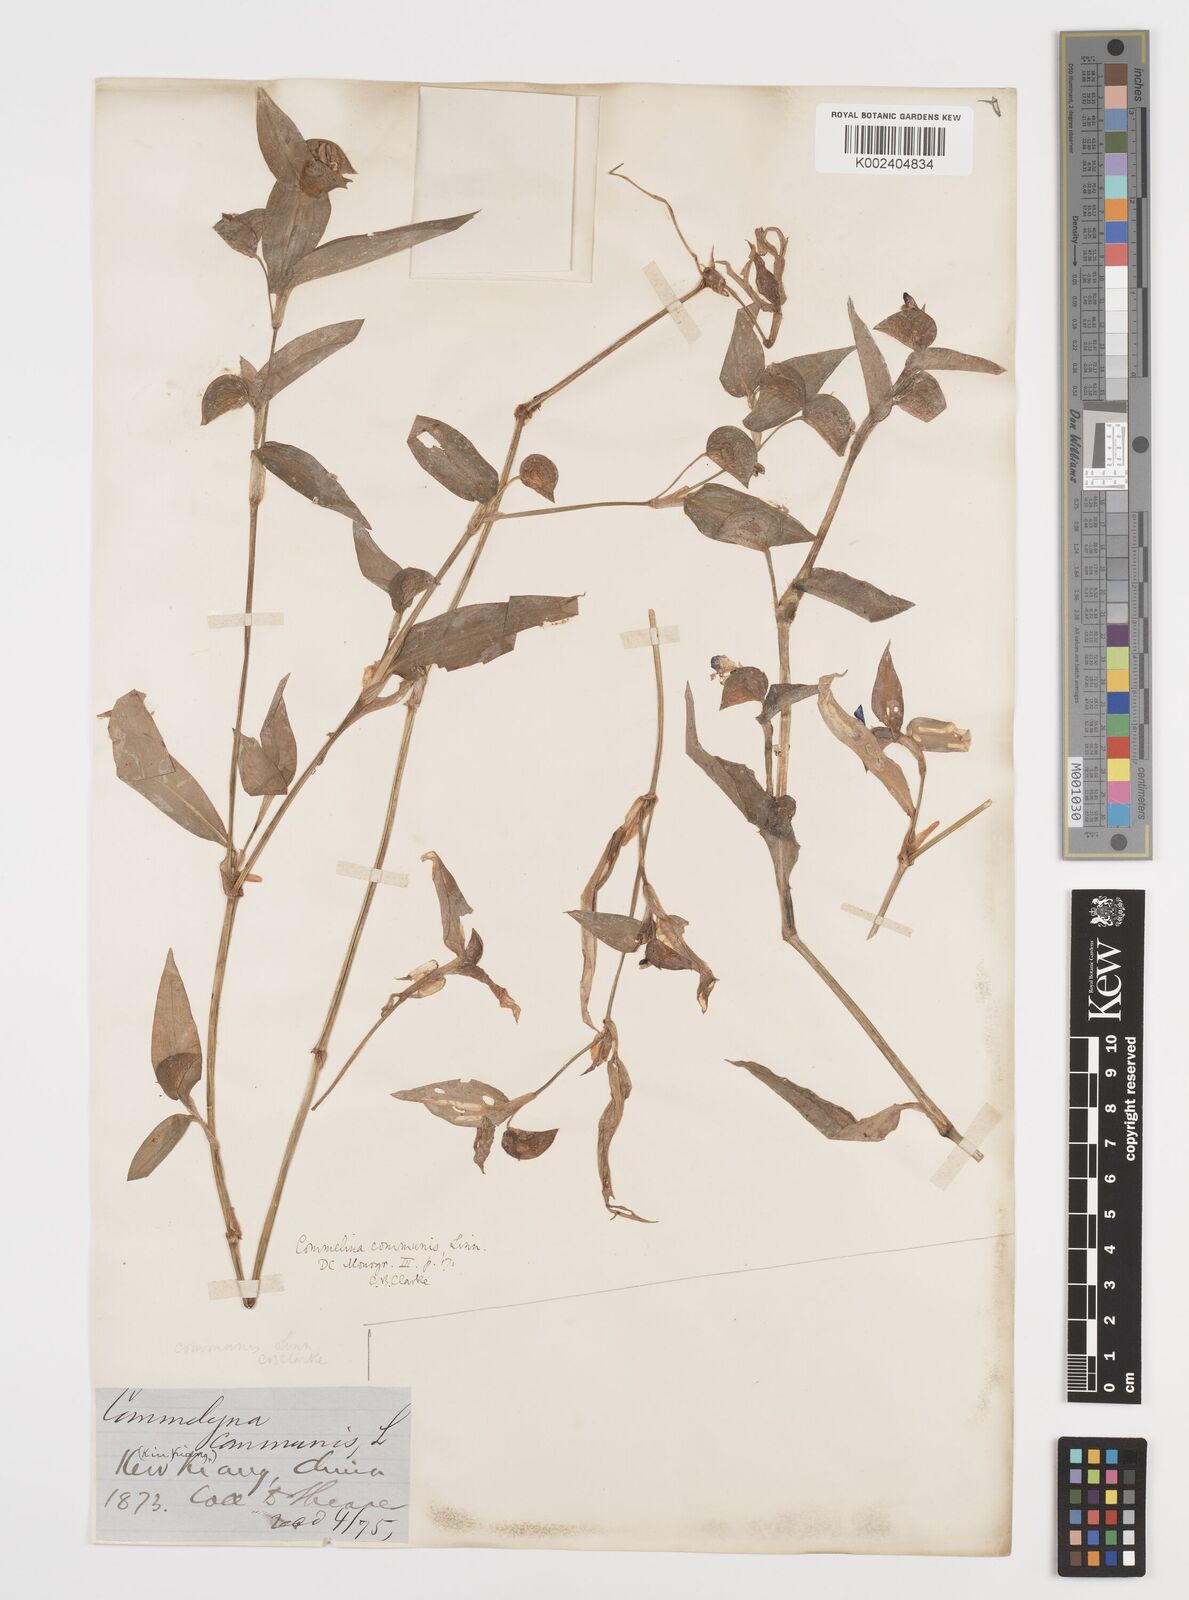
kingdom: Plantae
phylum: Tracheophyta
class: Liliopsida
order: Commelinales
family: Commelinaceae
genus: Commelina
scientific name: Commelina communis
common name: Asiatic dayflower
